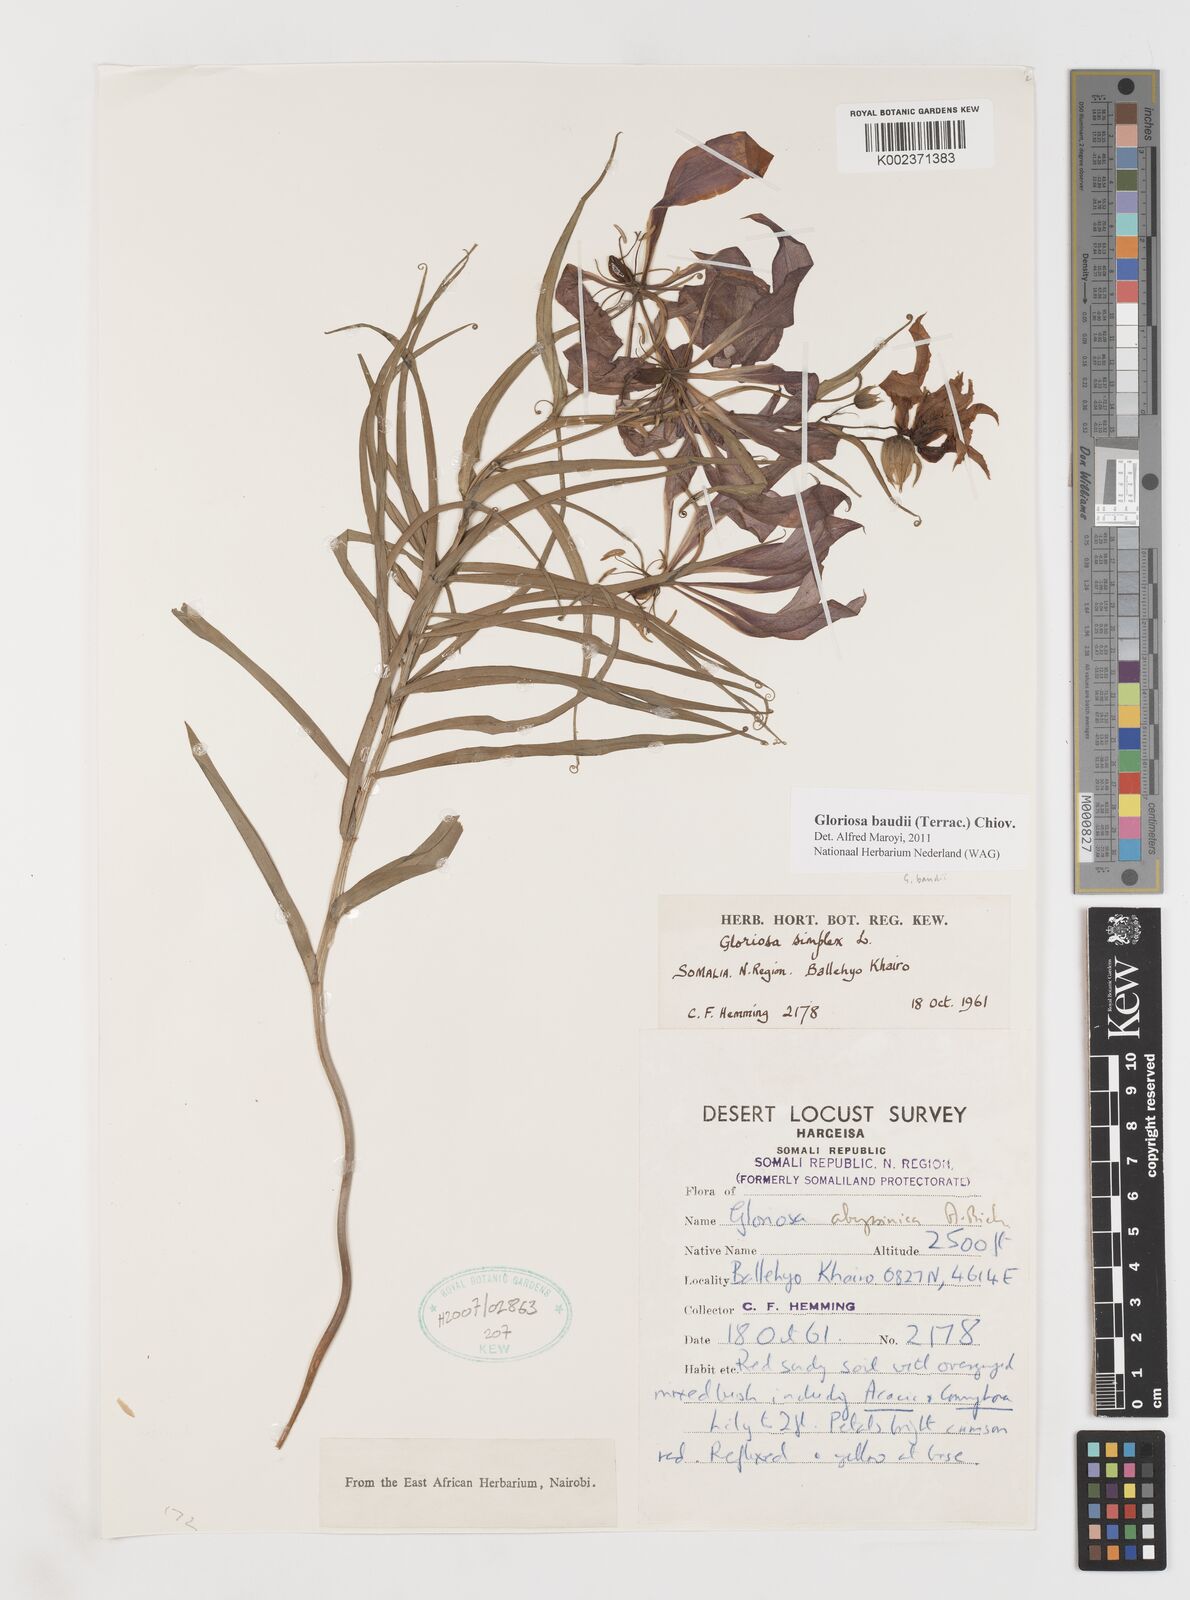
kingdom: Plantae
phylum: Tracheophyta
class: Liliopsida
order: Liliales
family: Colchicaceae
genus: Gloriosa
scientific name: Gloriosa baudii
